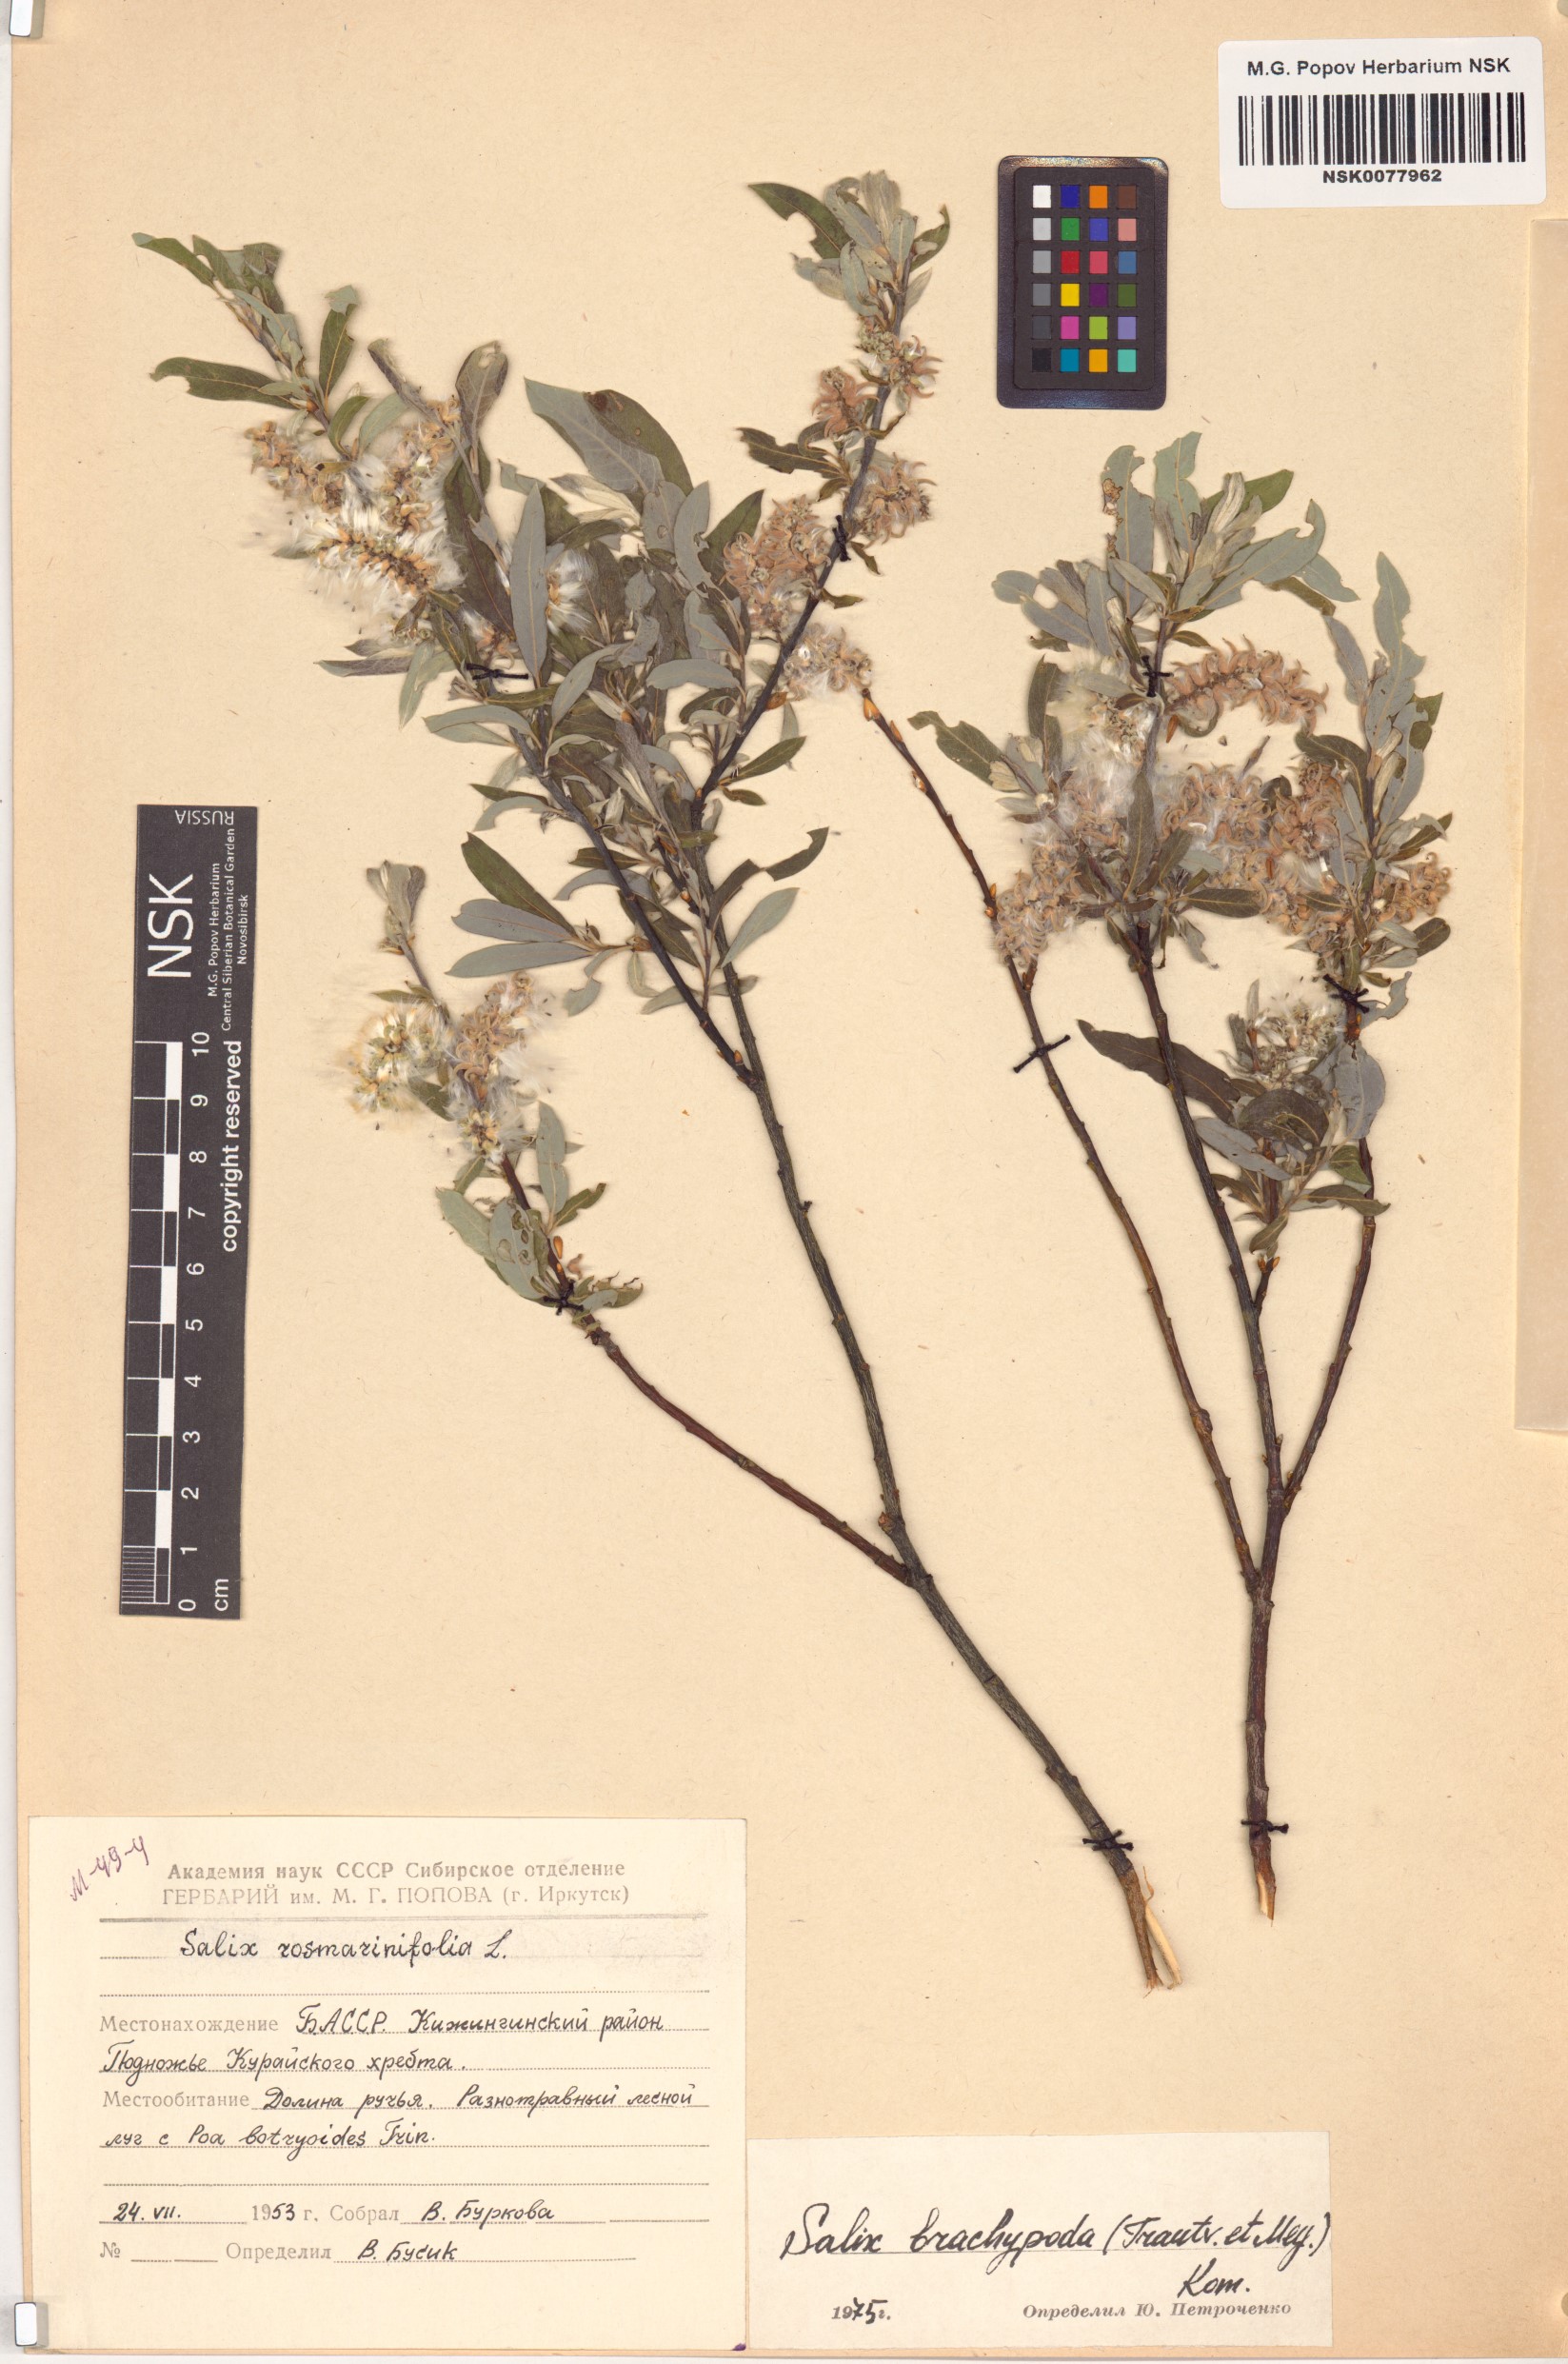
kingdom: Plantae
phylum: Tracheophyta
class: Magnoliopsida
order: Malpighiales
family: Salicaceae
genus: Salix
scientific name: Salix brachypoda
